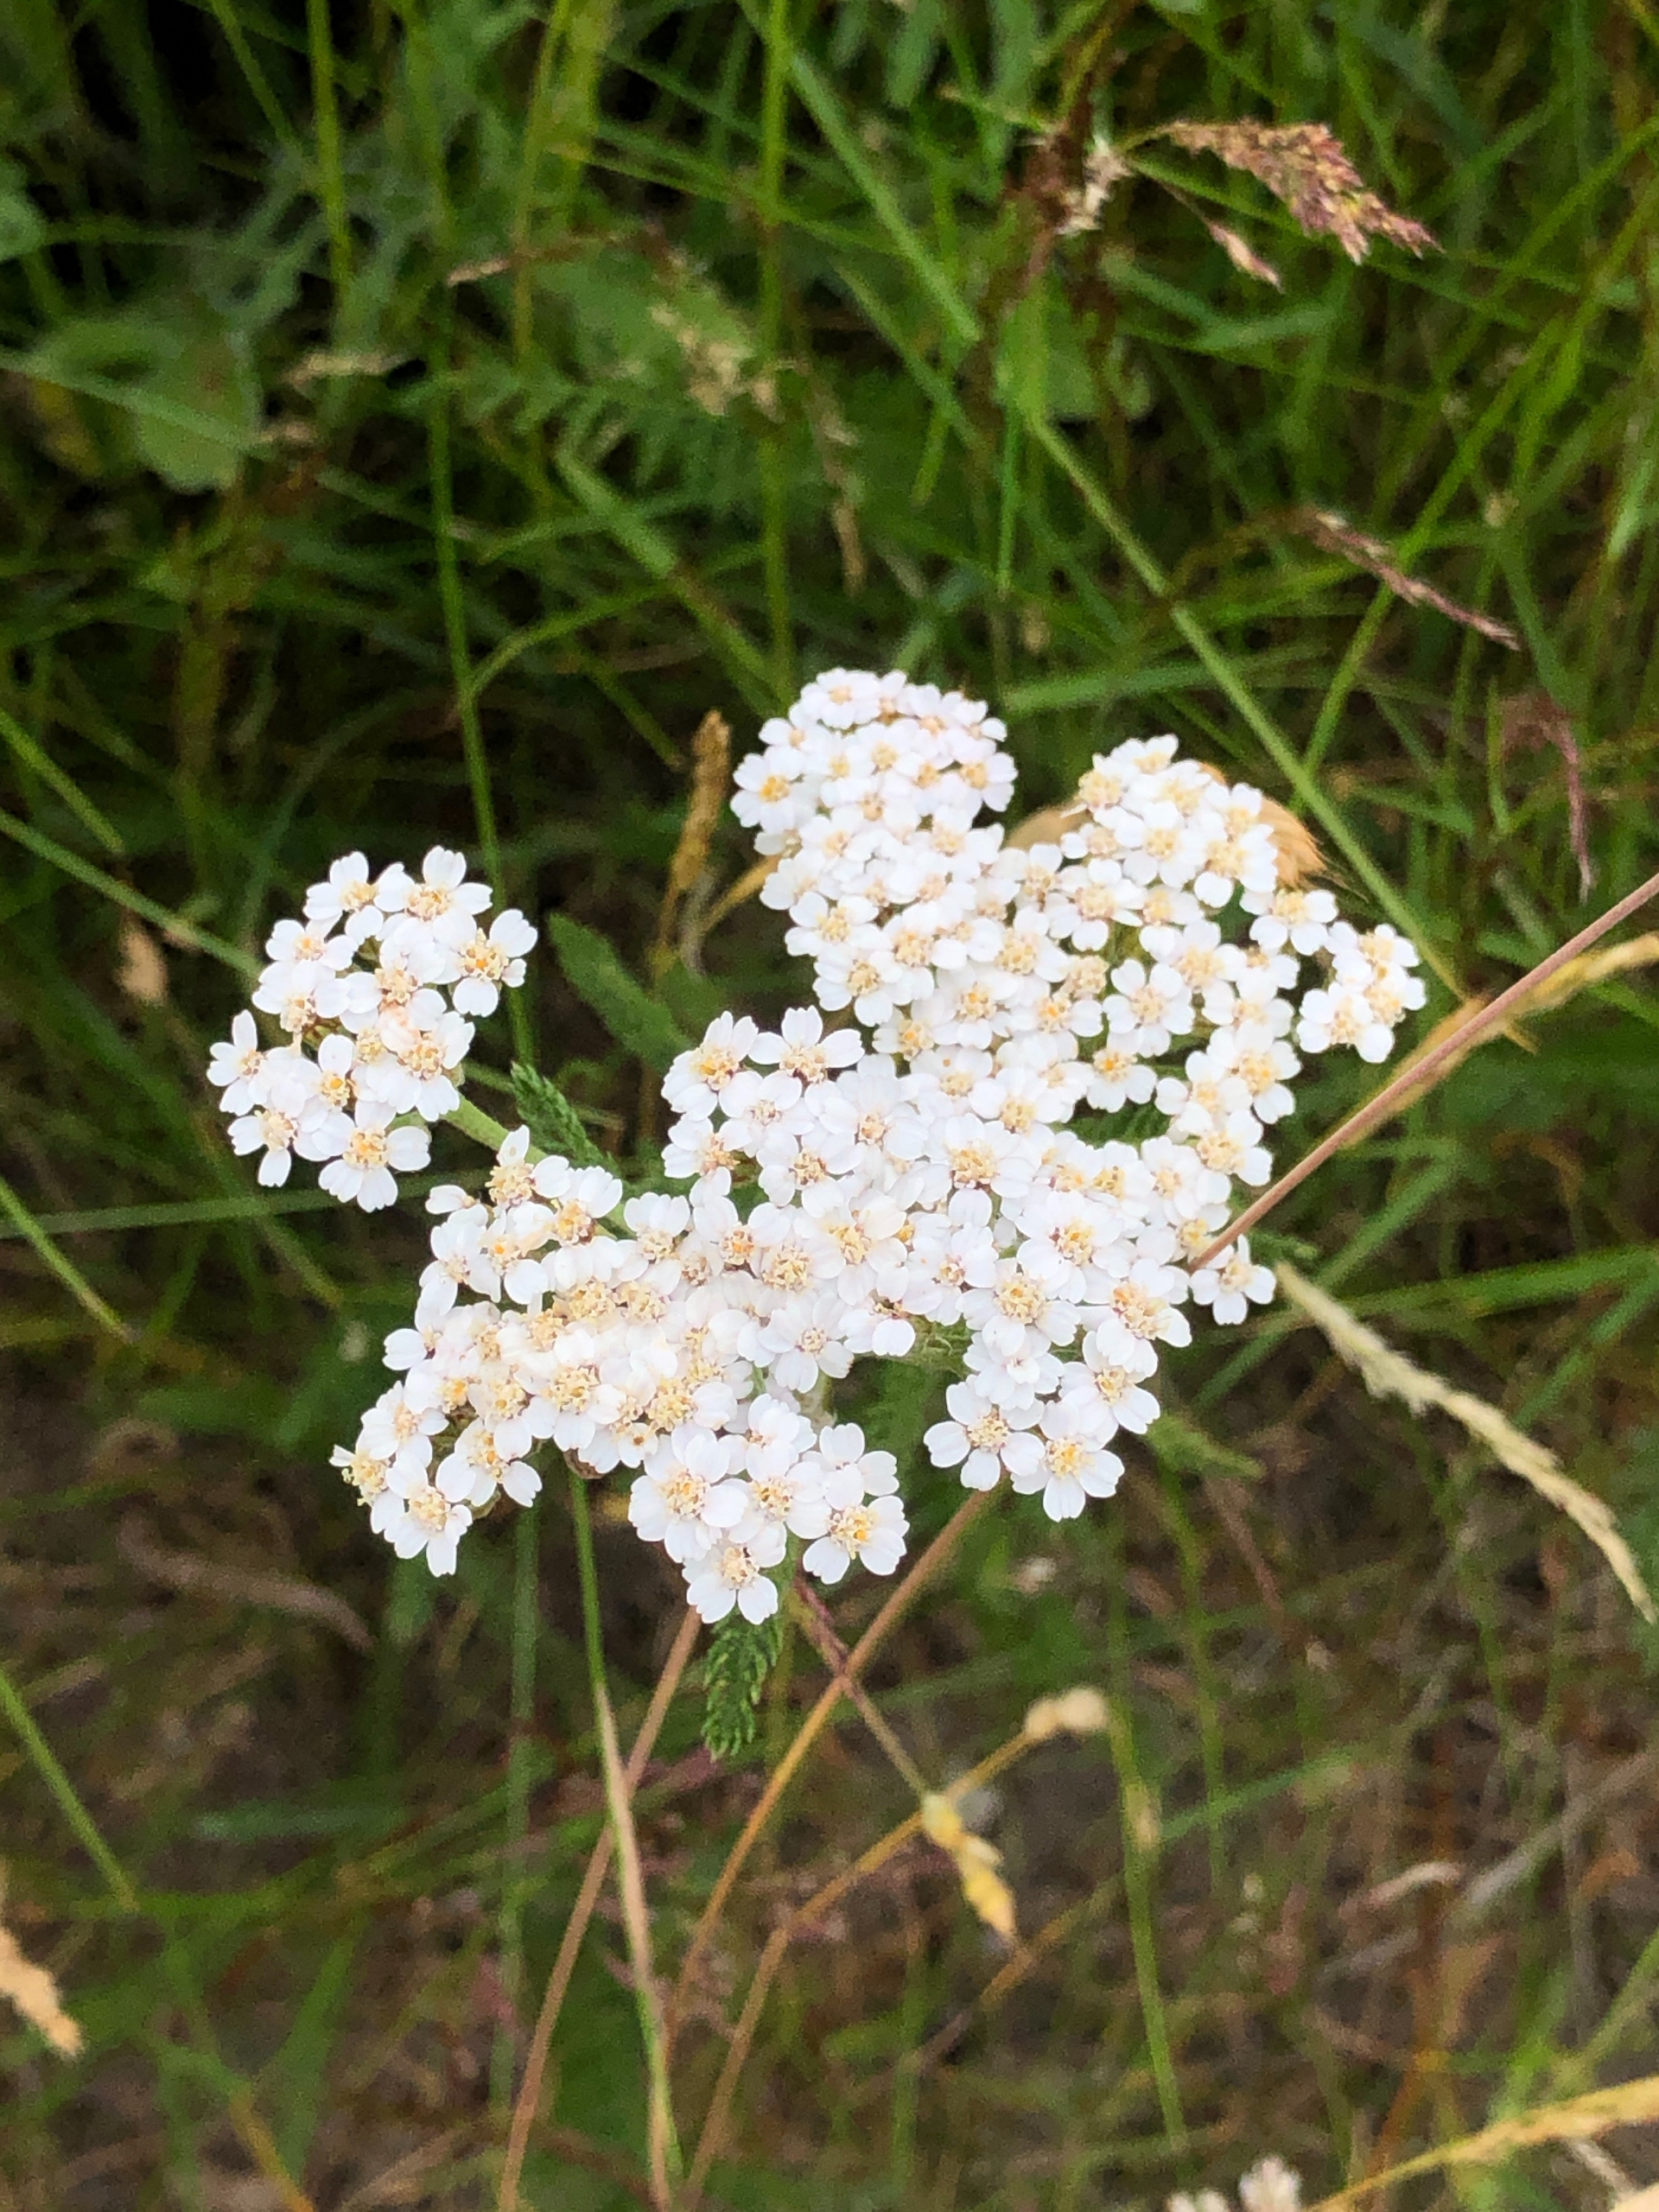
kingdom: Plantae
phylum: Tracheophyta
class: Magnoliopsida
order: Asterales
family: Asteraceae
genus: Achillea
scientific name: Achillea millefolium
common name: Almindelig røllike
